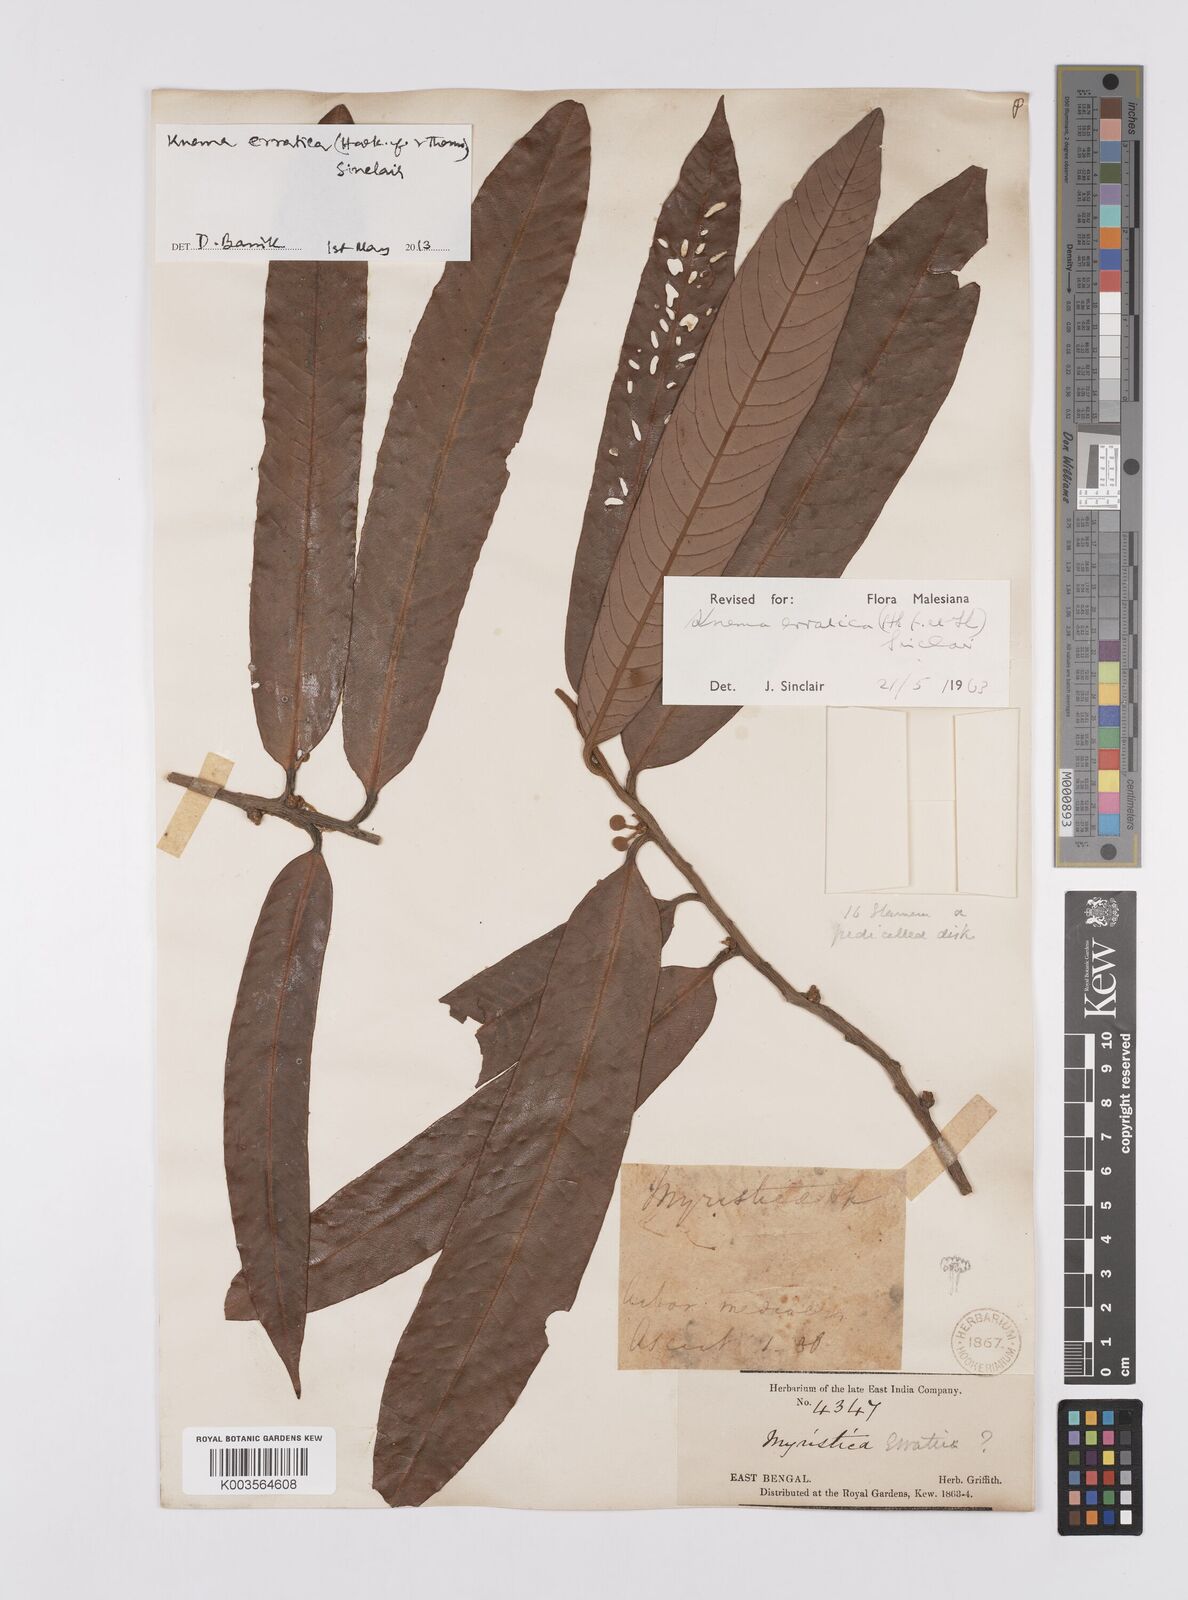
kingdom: Plantae
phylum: Tracheophyta
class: Magnoliopsida
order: Magnoliales
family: Myristicaceae
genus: Knema
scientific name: Knema erratica
